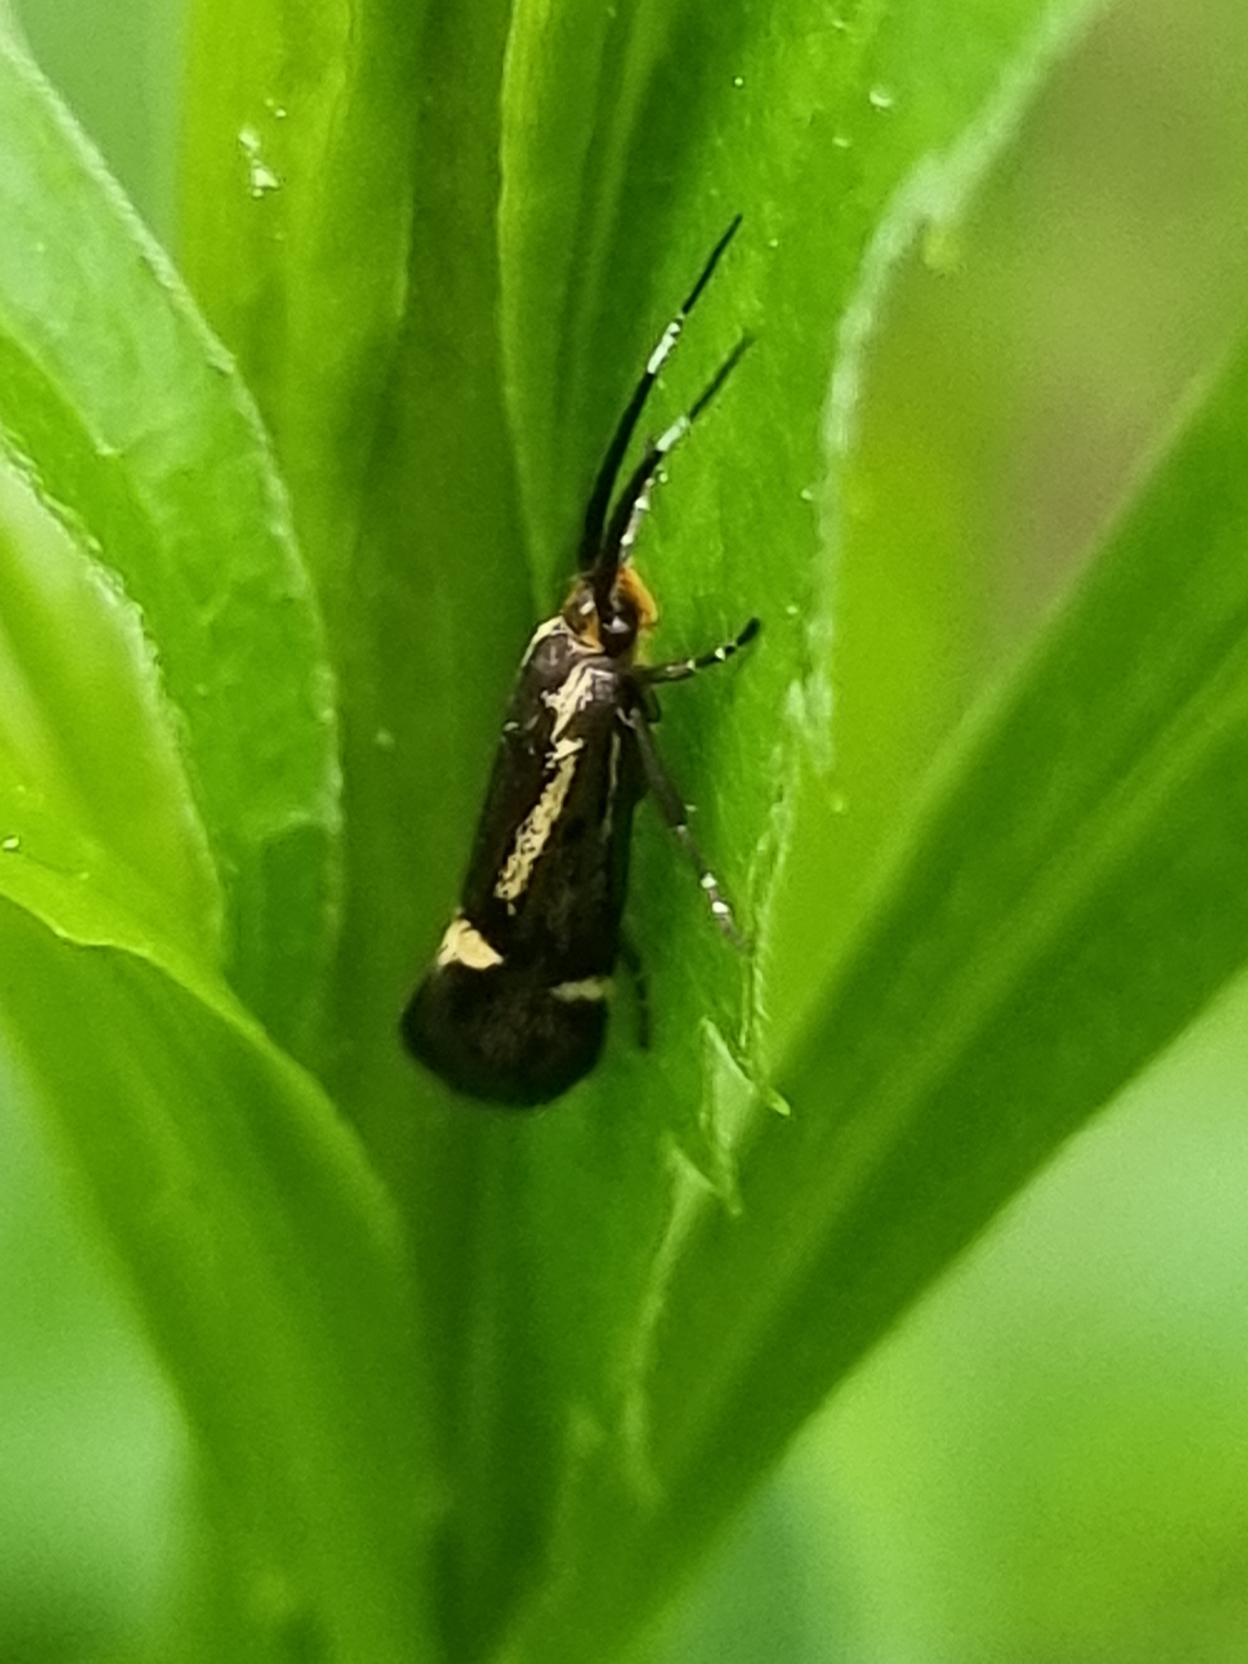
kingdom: Animalia
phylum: Arthropoda
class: Insecta
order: Lepidoptera
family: Oecophoridae
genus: Dafa
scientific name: Dafa Esperia sulphurella
